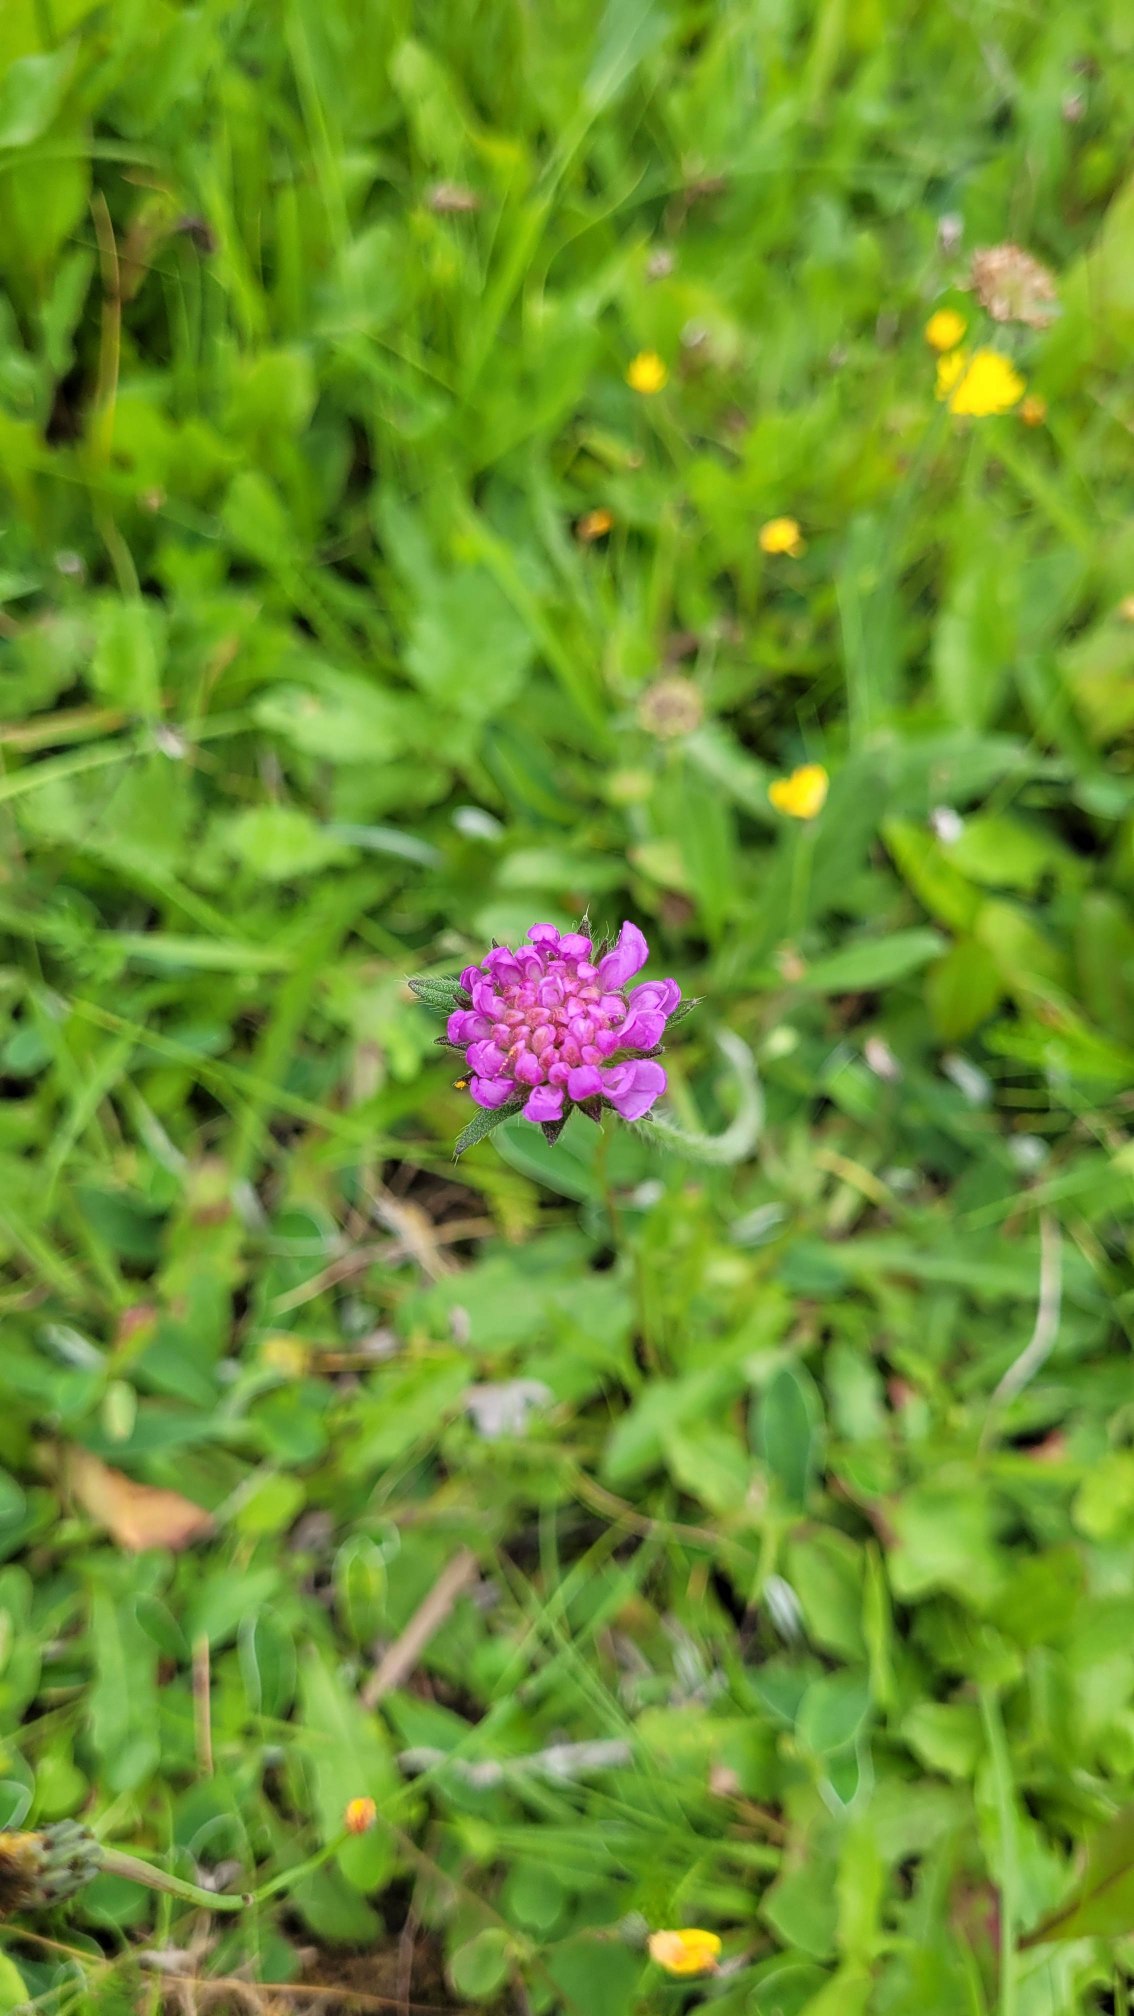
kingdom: Plantae
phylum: Tracheophyta
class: Magnoliopsida
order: Dipsacales
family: Caprifoliaceae
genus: Knautia
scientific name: Knautia arvensis
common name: Blåhat
